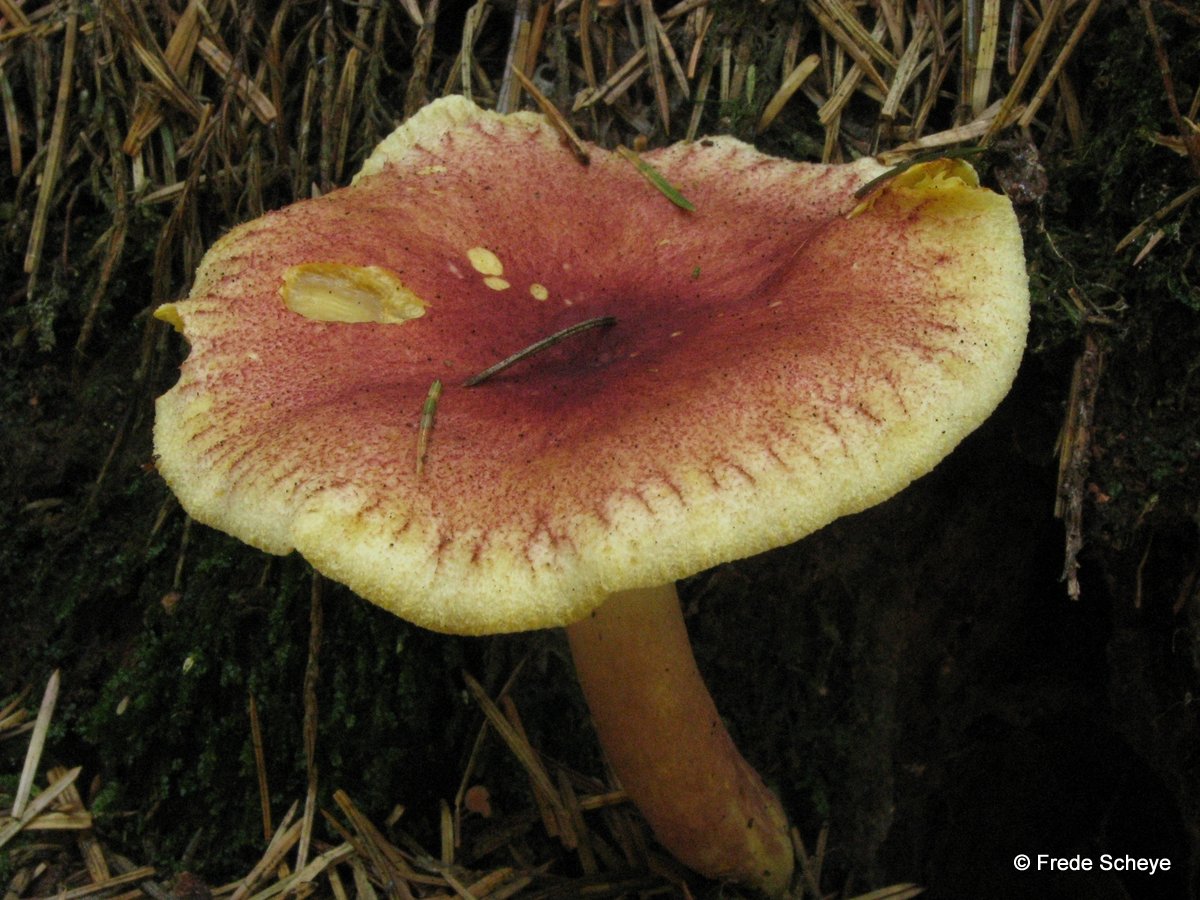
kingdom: Fungi
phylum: Basidiomycota
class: Agaricomycetes
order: Agaricales
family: Tricholomataceae
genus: Tricholomopsis
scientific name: Tricholomopsis rutilans
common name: purpur-væbnerhat
